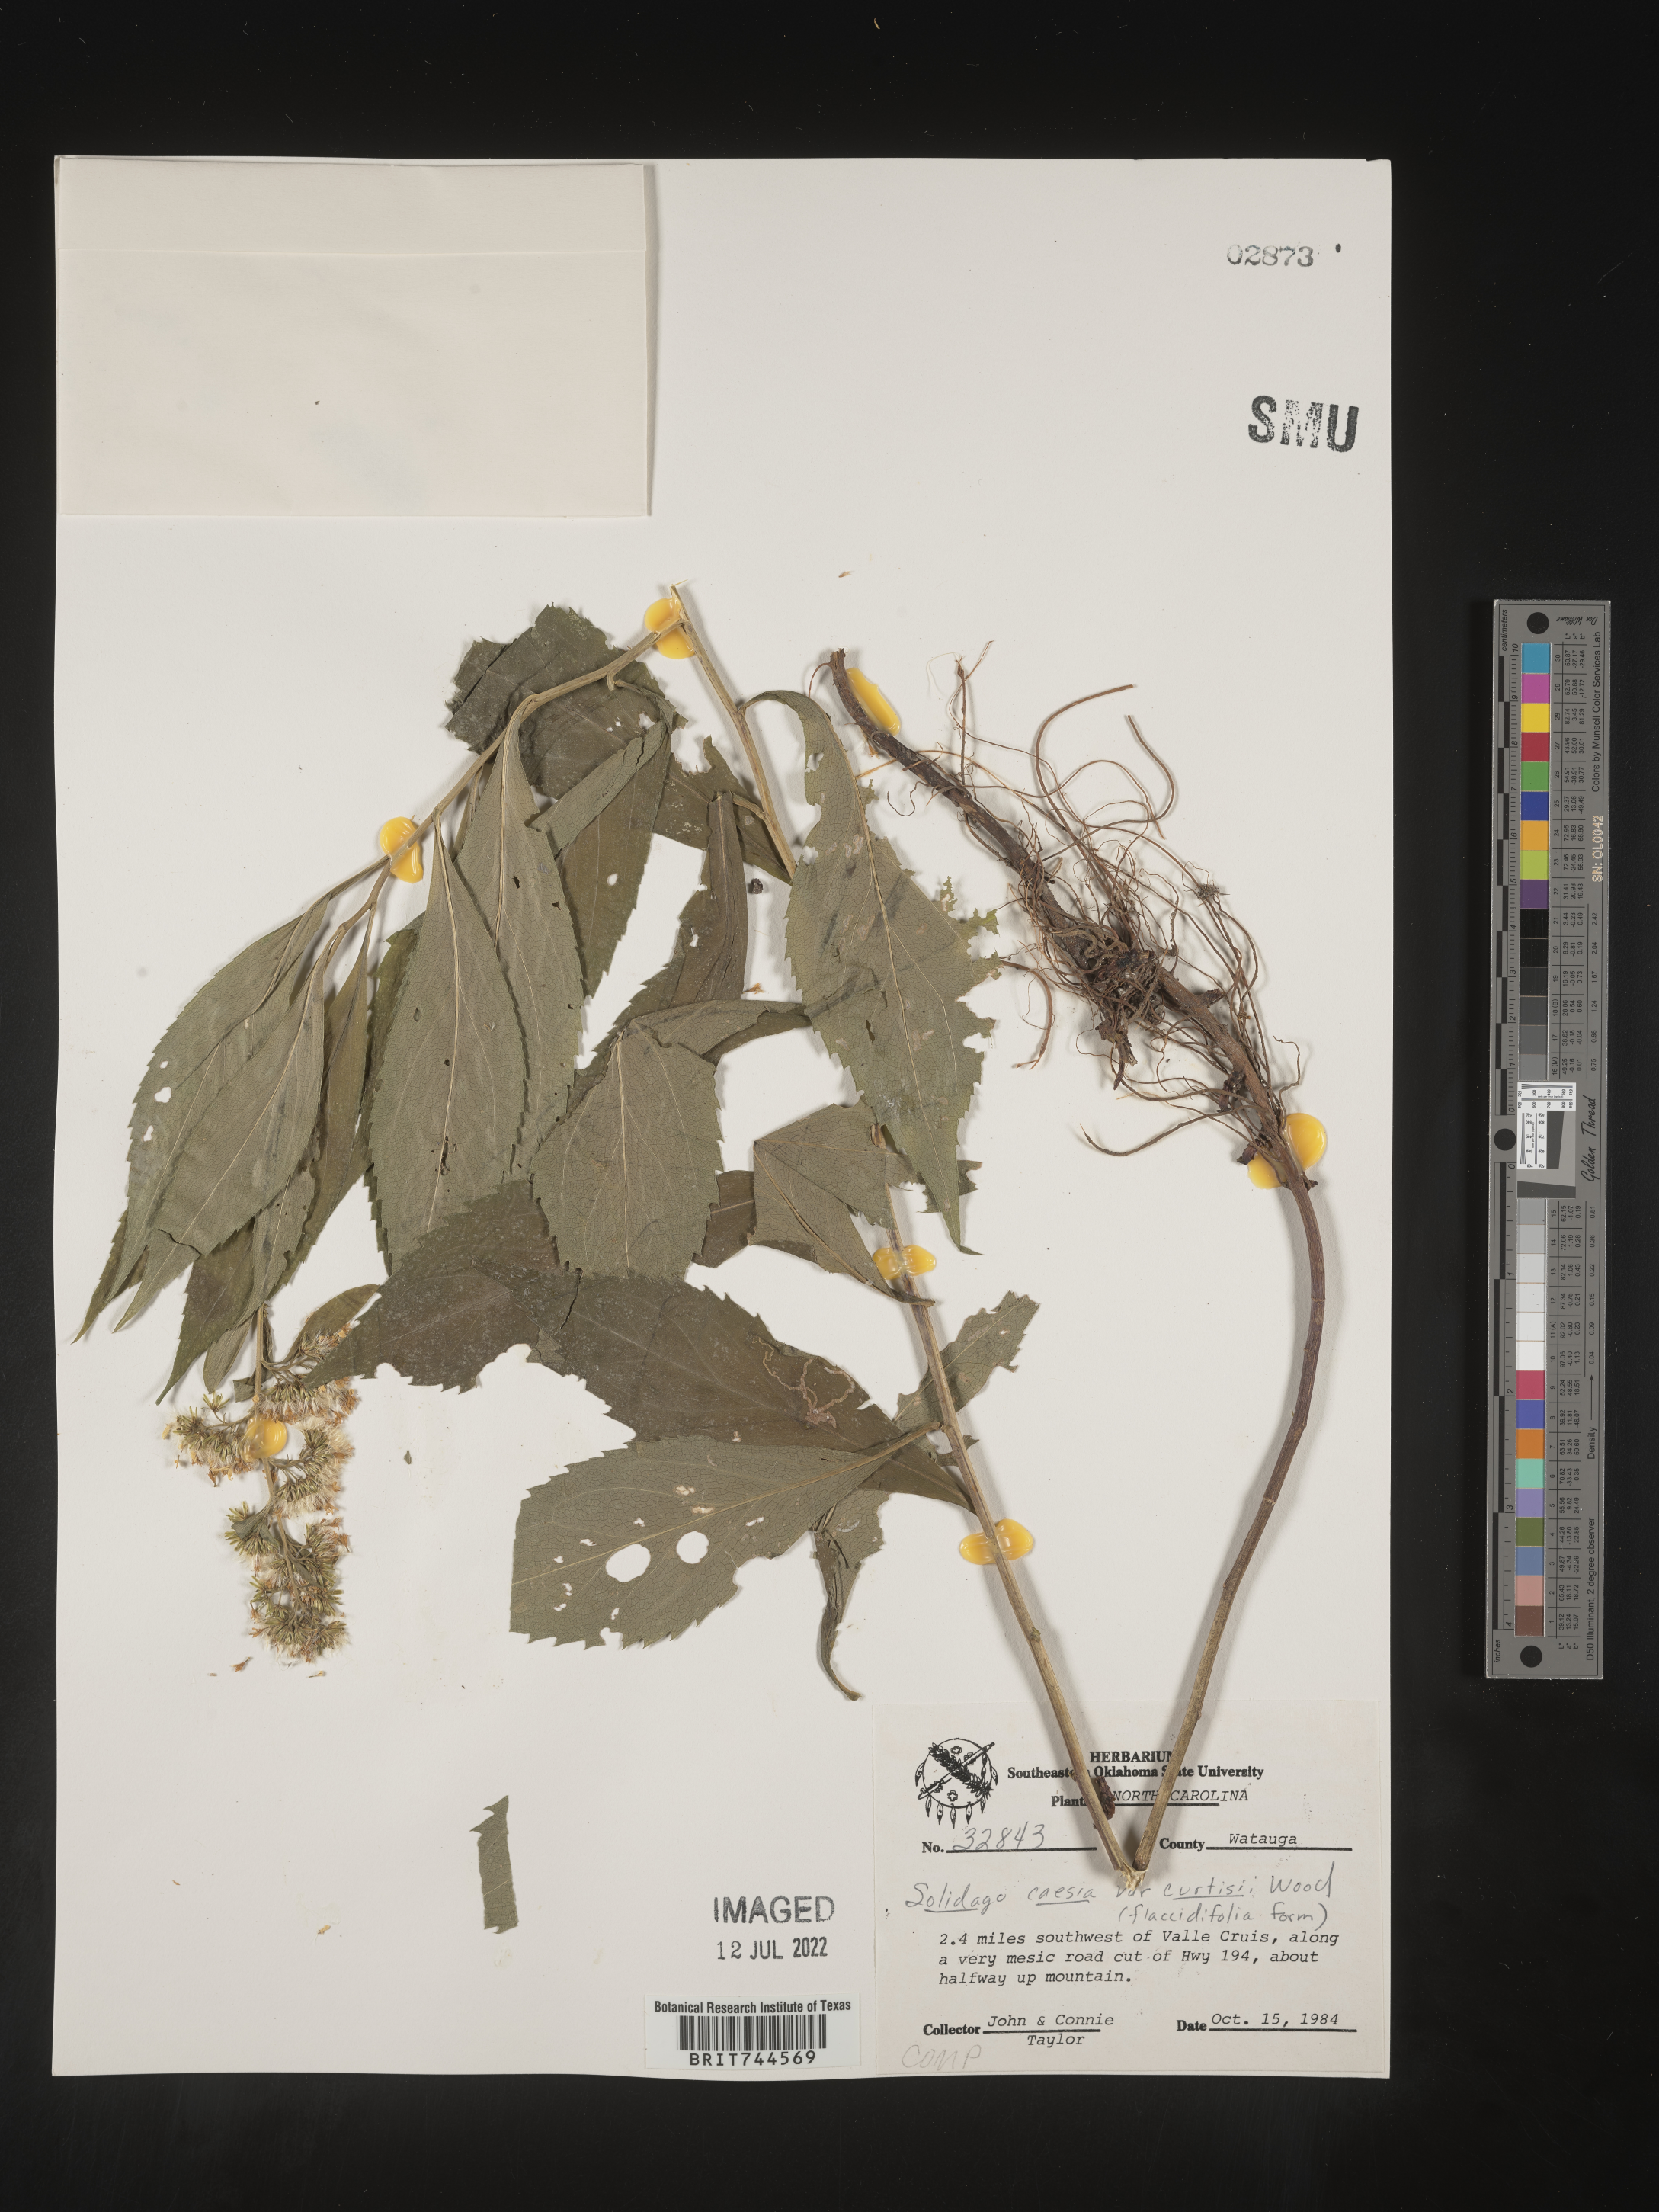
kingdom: Plantae
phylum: Tracheophyta
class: Magnoliopsida
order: Asterales
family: Asteraceae
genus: Solidago
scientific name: Solidago caesia
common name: Woodland goldenrod
